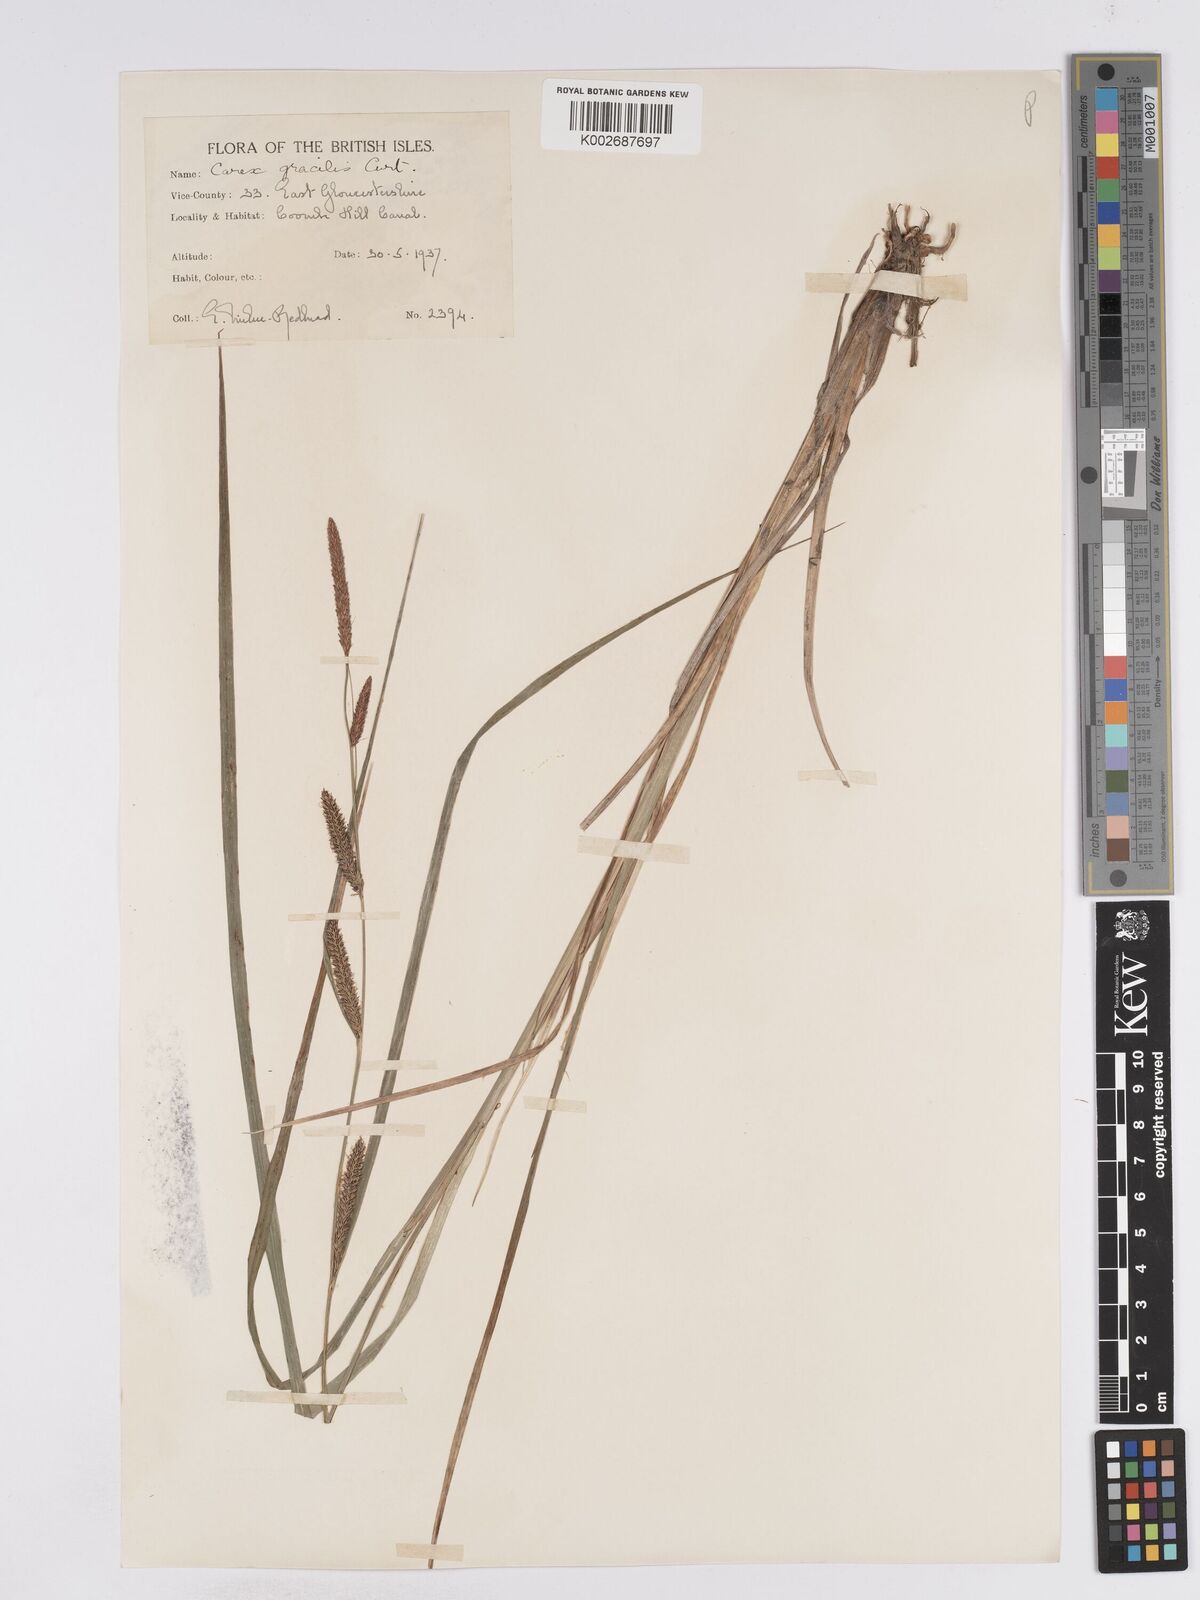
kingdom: Plantae
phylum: Tracheophyta
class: Liliopsida
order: Poales
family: Cyperaceae
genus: Carex
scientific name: Carex acuta
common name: Slender tufted-sedge
